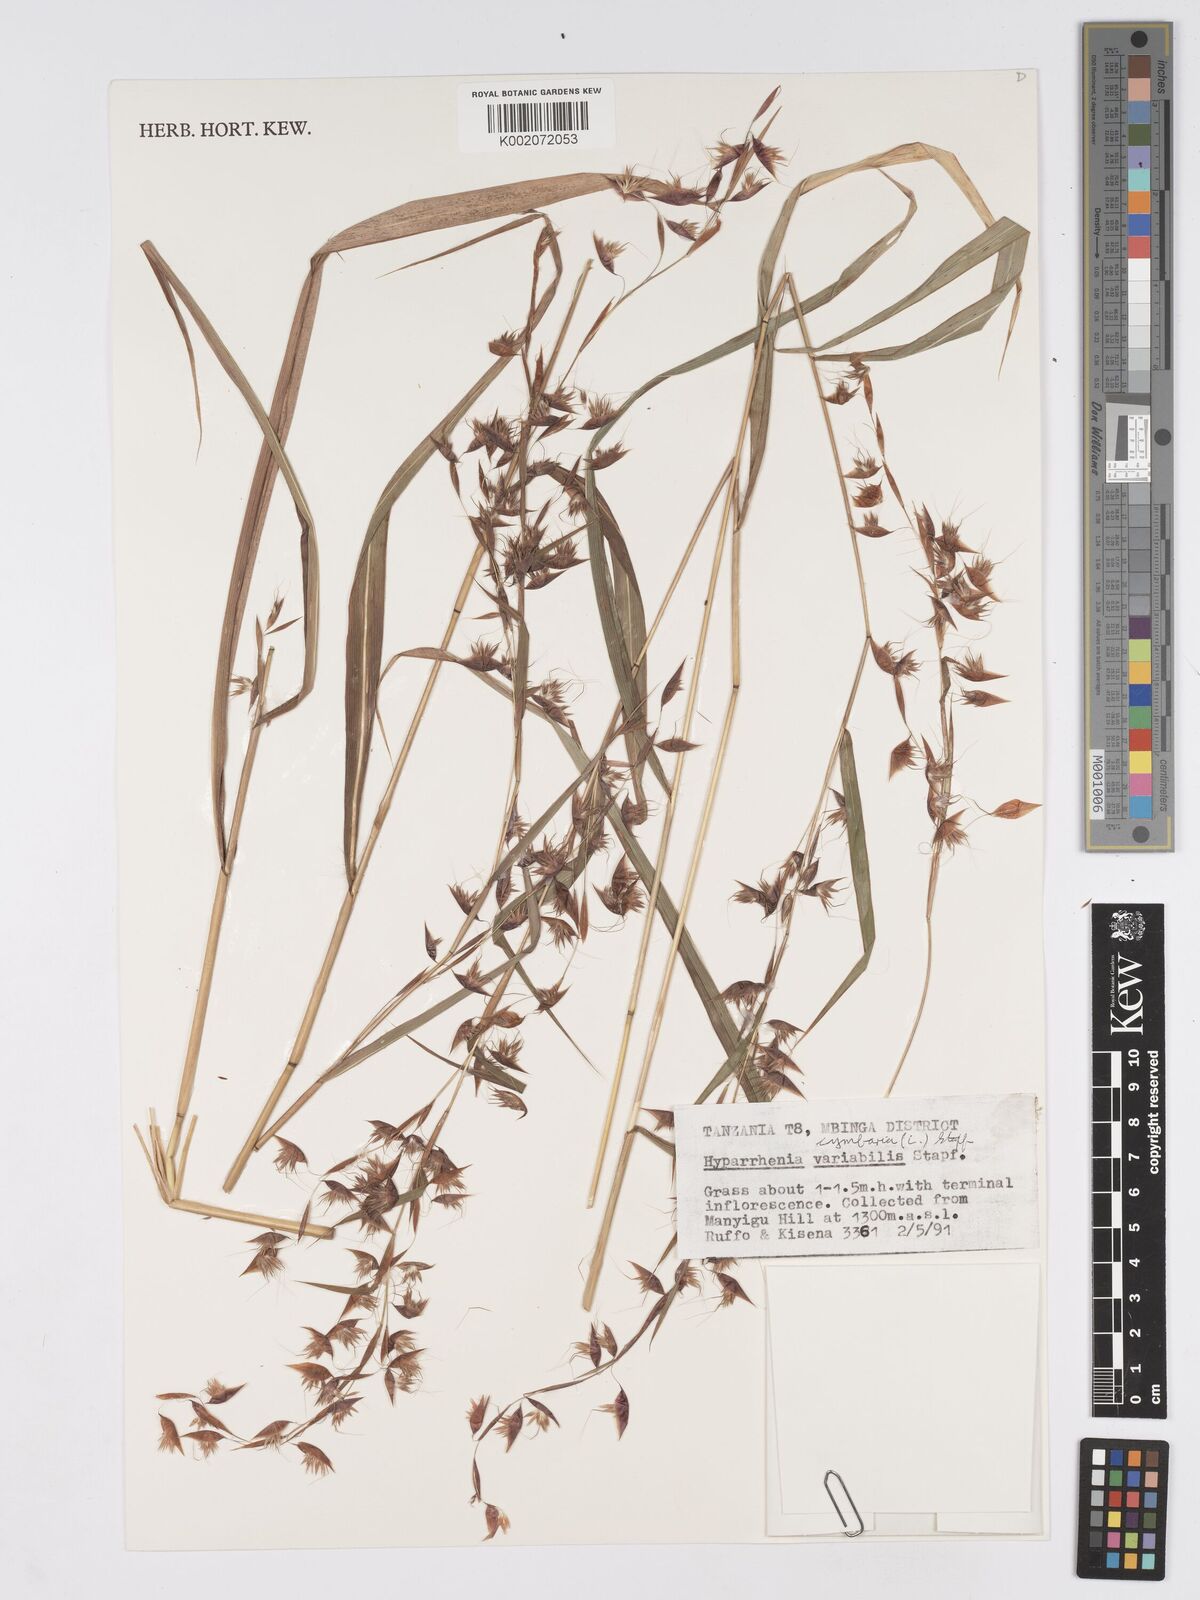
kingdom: Plantae
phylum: Tracheophyta
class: Liliopsida
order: Poales
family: Poaceae
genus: Hyparrhenia
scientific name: Hyparrhenia cymbaria
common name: Boat thatching grass
